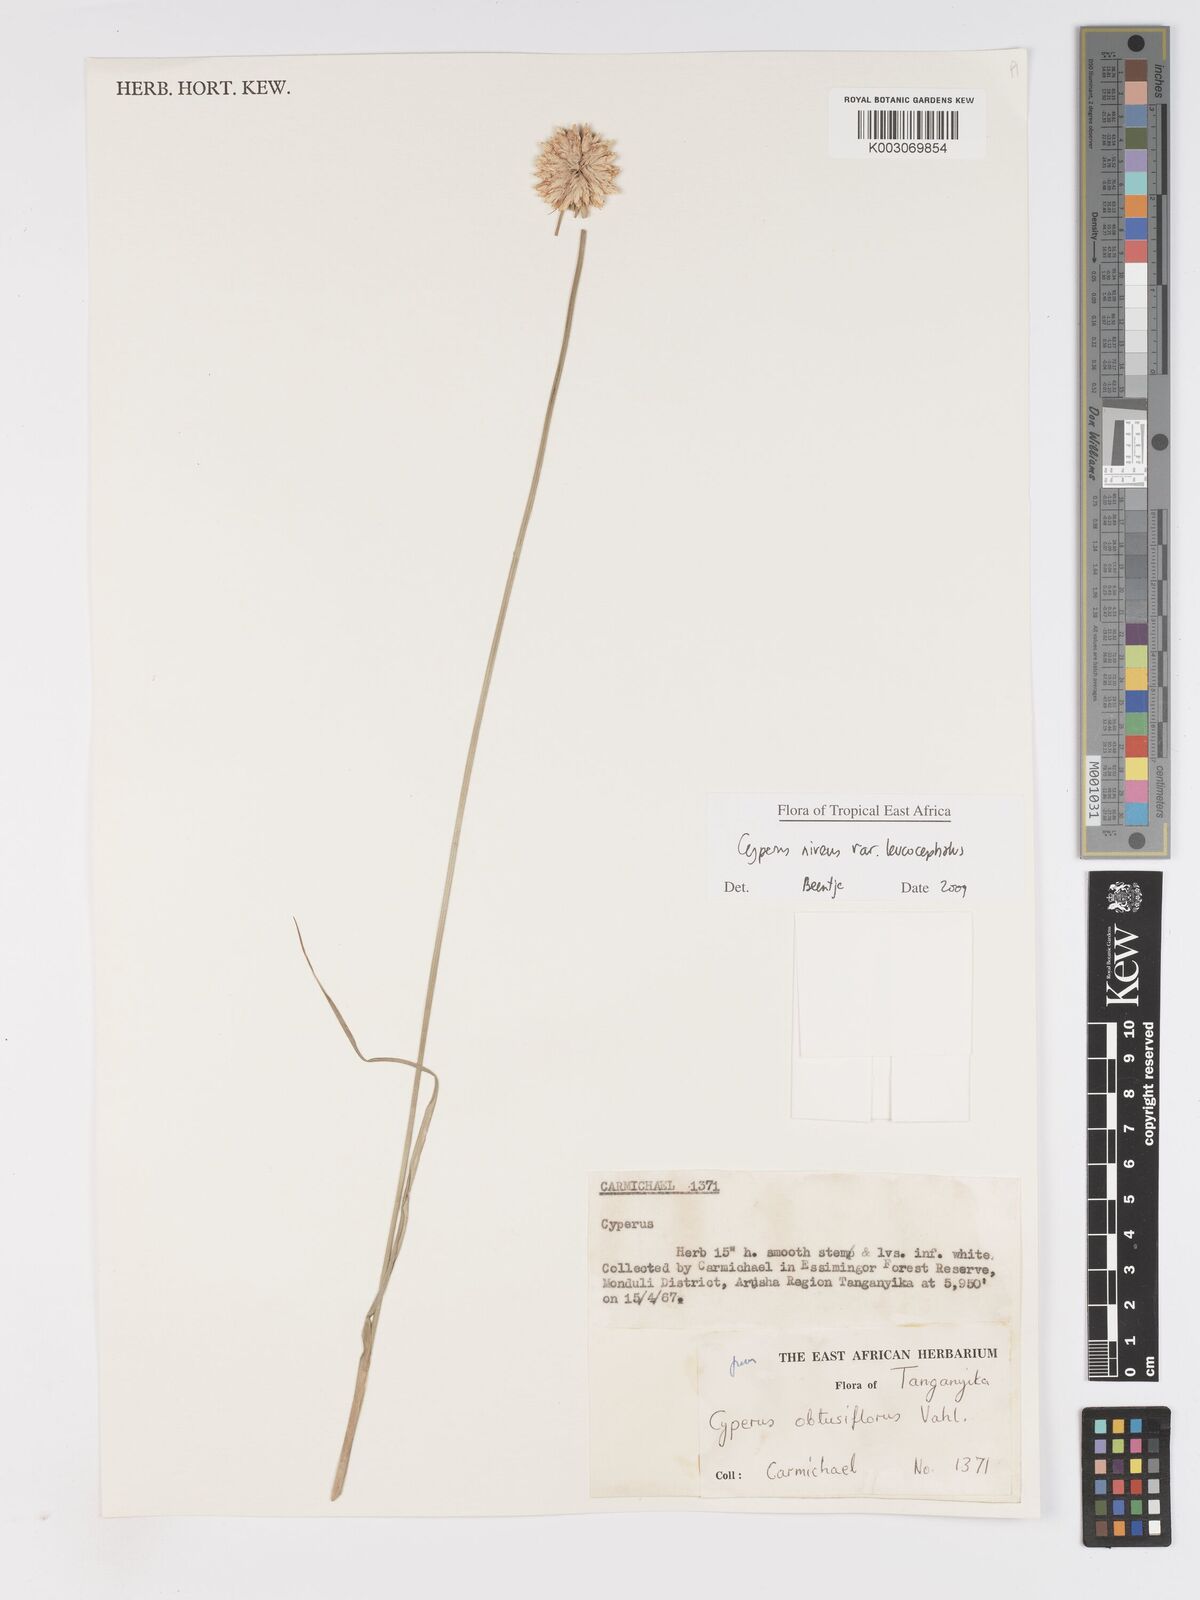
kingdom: Plantae
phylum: Tracheophyta
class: Liliopsida
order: Poales
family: Cyperaceae
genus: Cyperus
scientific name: Cyperus niveus
